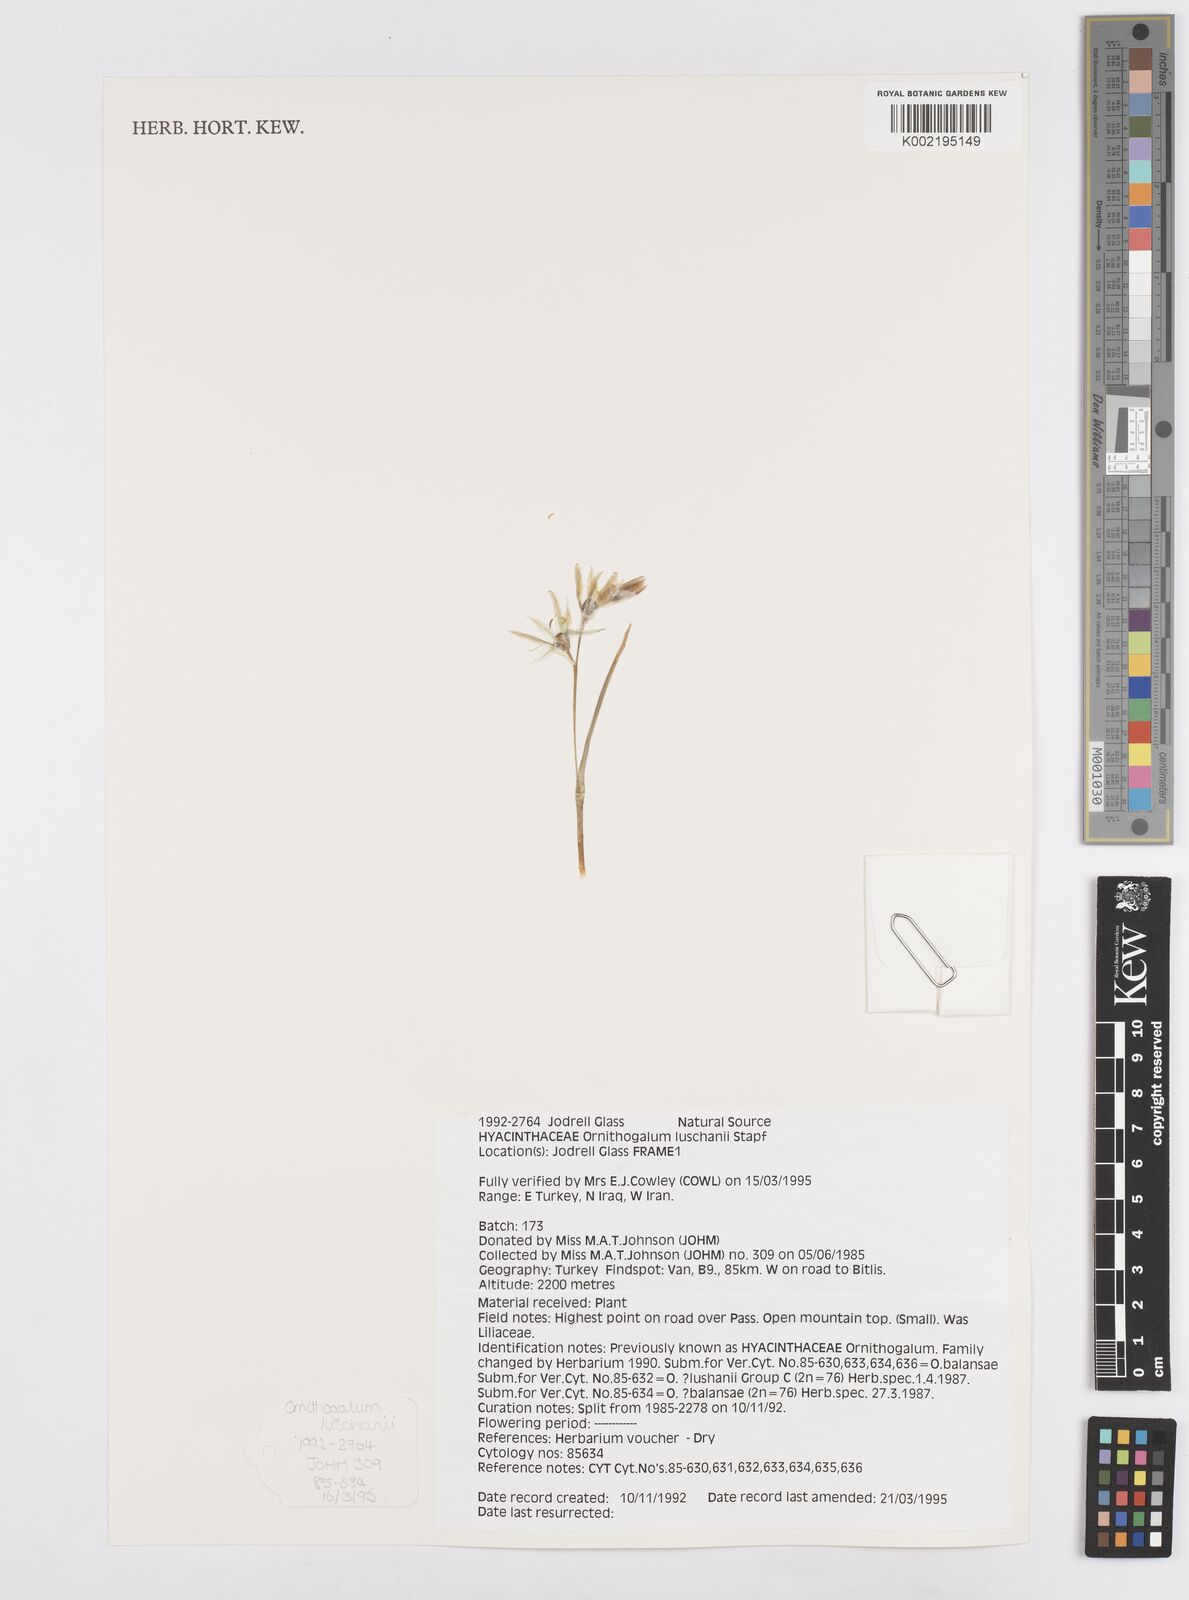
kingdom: Plantae
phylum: Tracheophyta
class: Liliopsida
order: Asparagales
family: Asparagaceae
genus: Ornithogalum
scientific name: Ornithogalum luschanii
